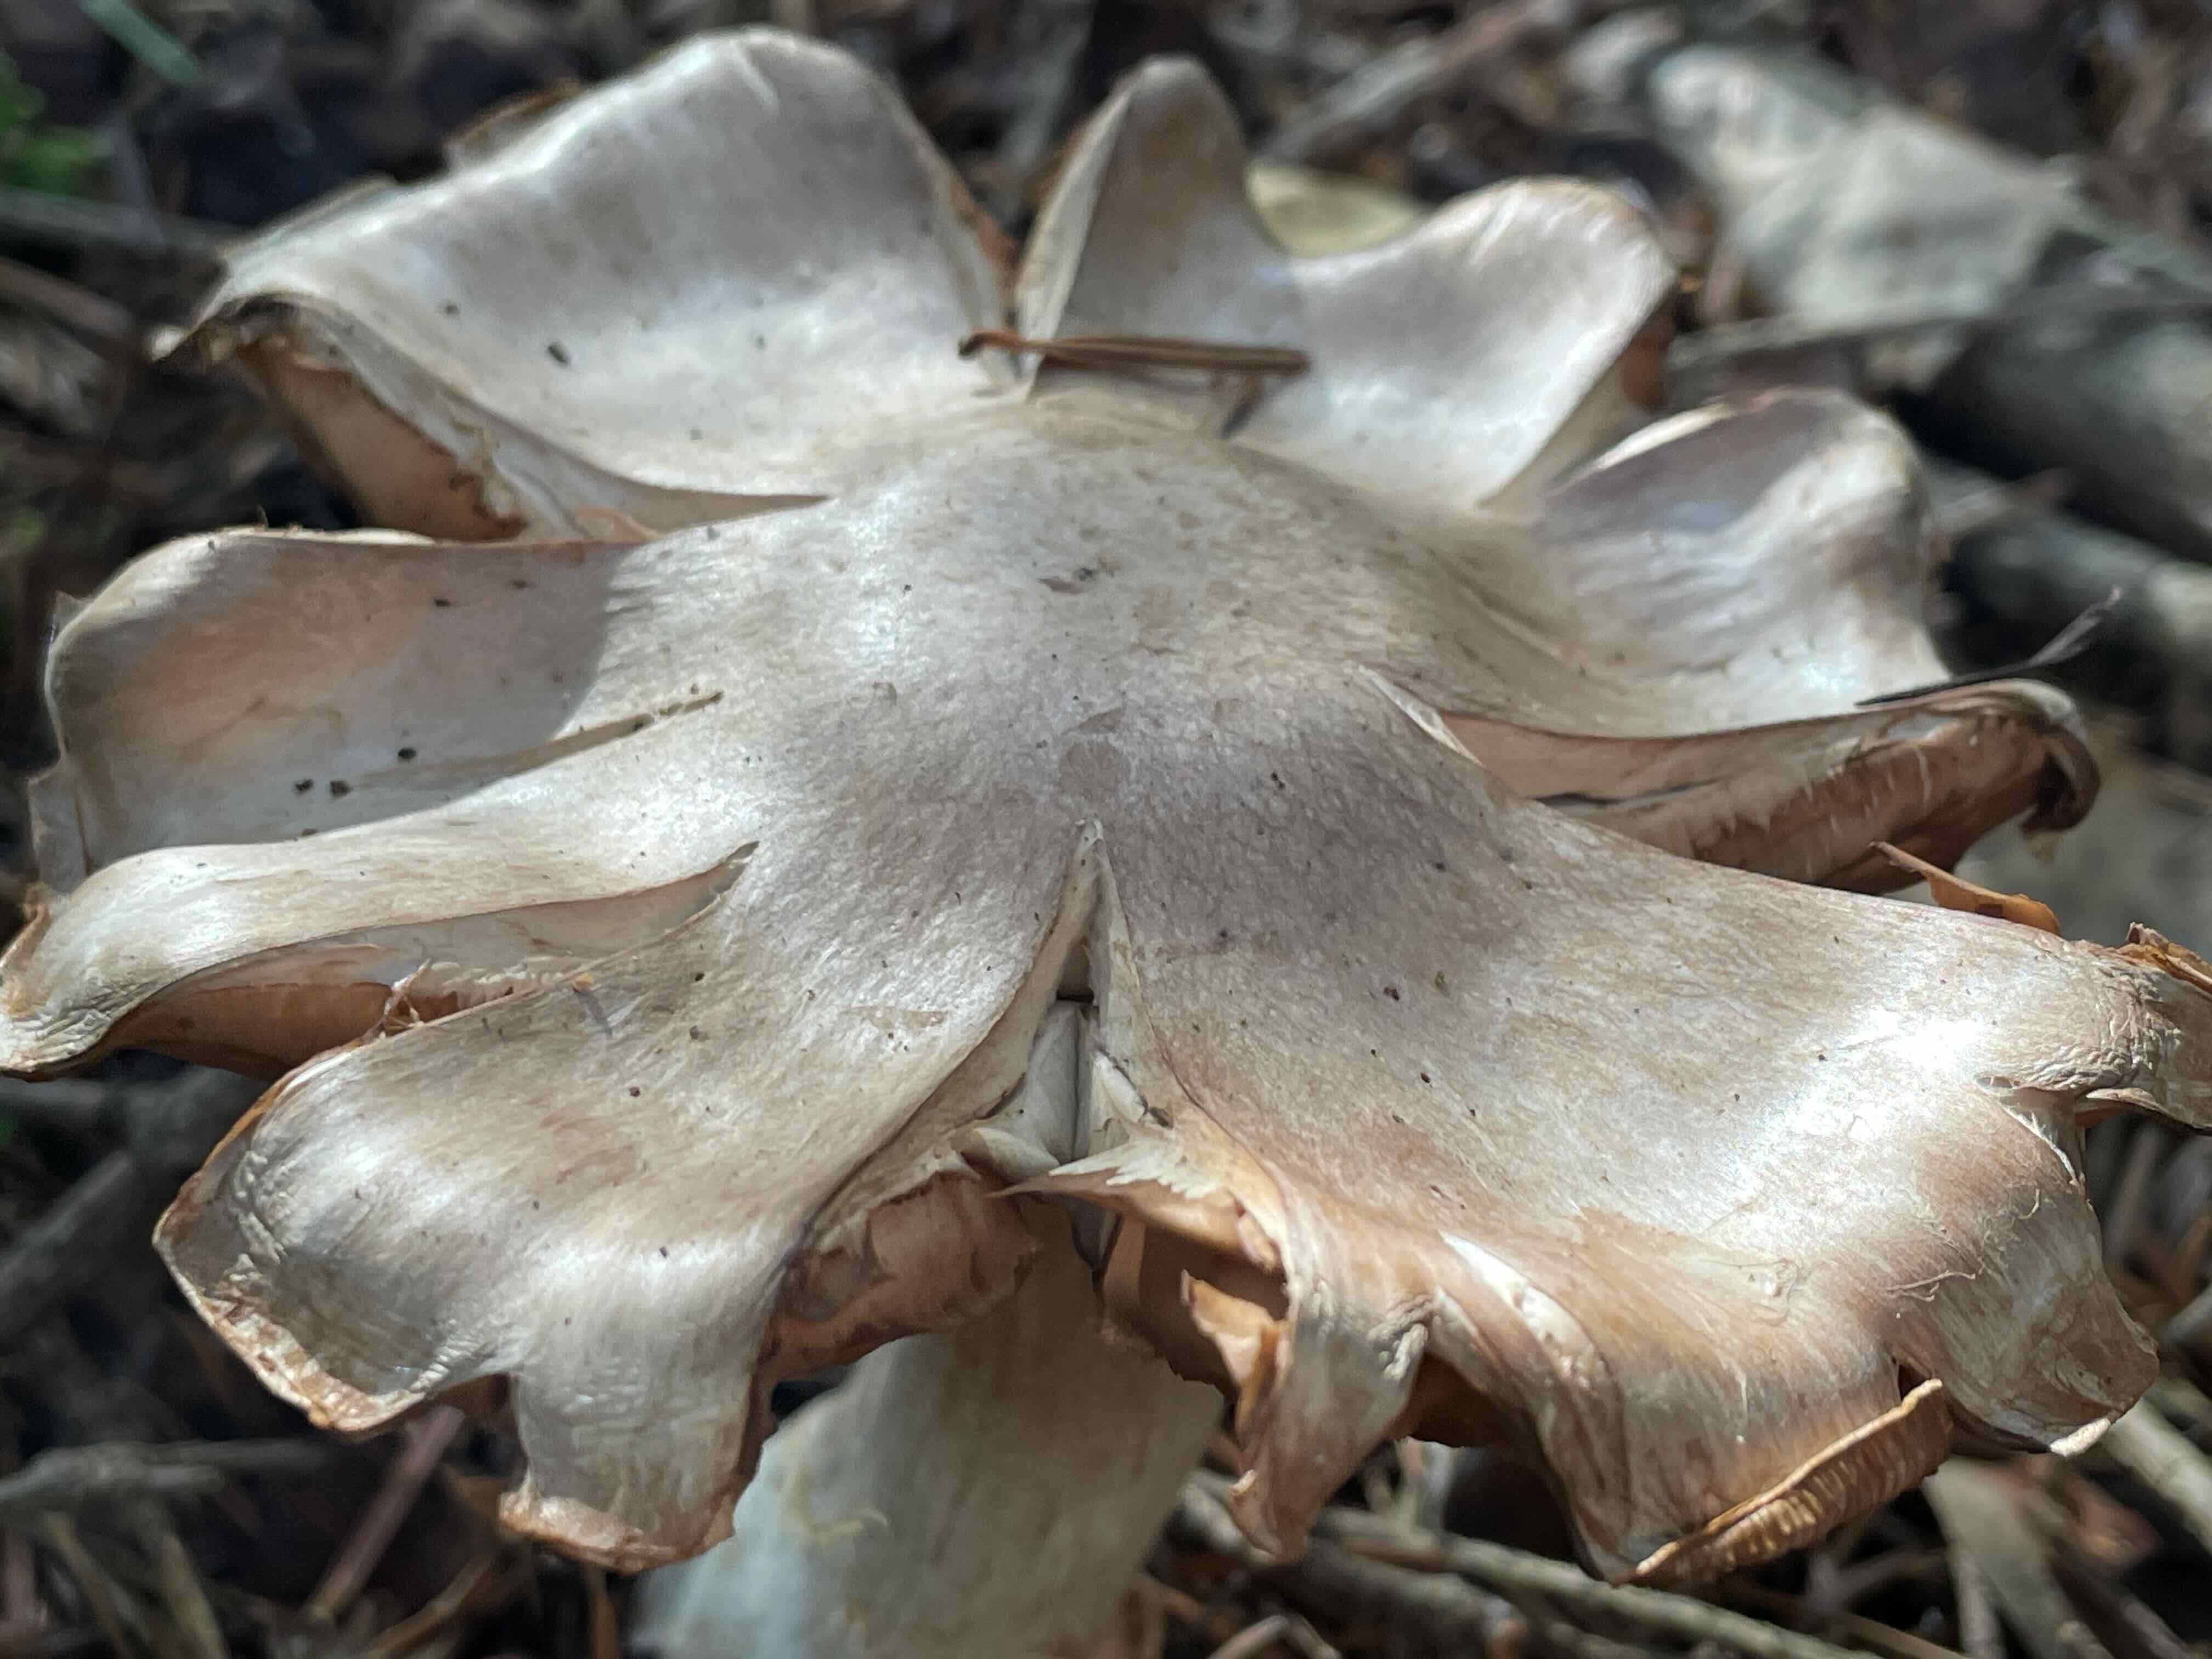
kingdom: Fungi
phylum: Basidiomycota
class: Agaricomycetes
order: Agaricales
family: Cortinariaceae
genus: Thaxterogaster
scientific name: Thaxterogaster
